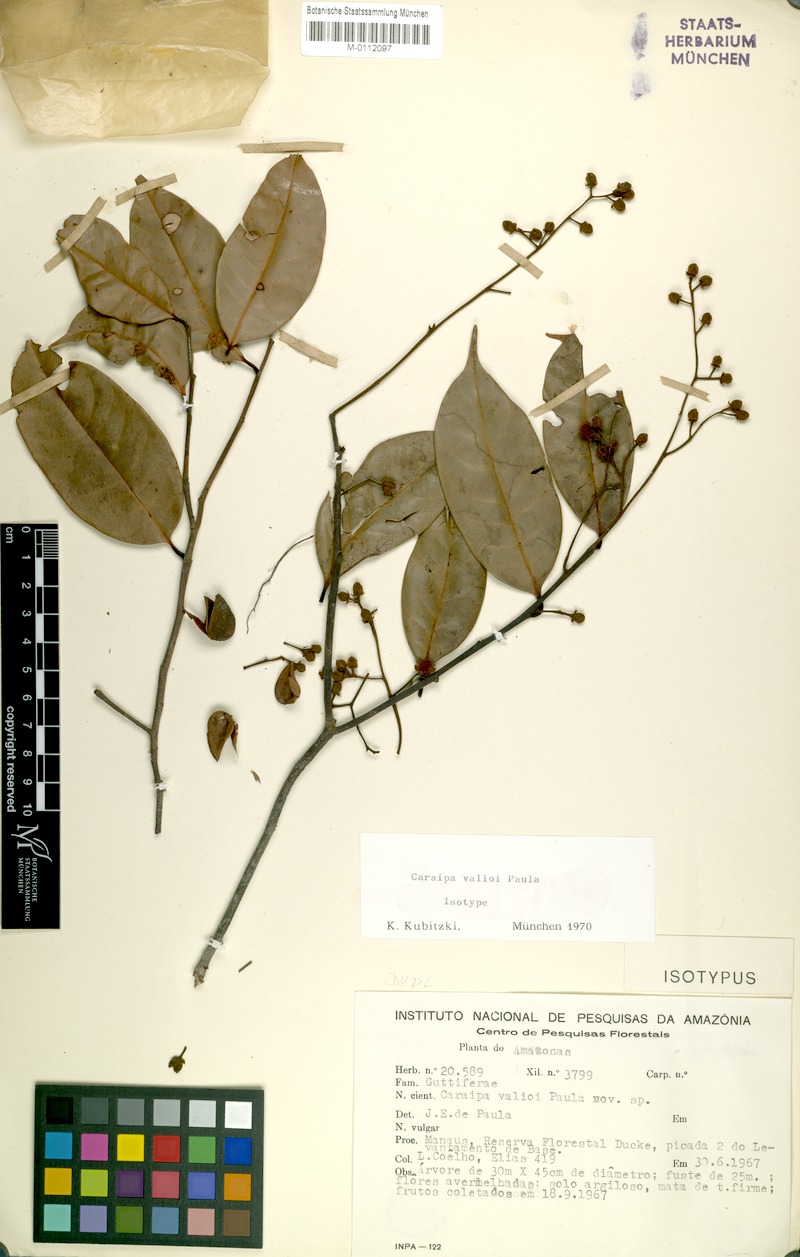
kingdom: Plantae
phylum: Tracheophyta
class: Magnoliopsida
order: Malpighiales
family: Calophyllaceae
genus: Caraipa
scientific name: Caraipa valioi
